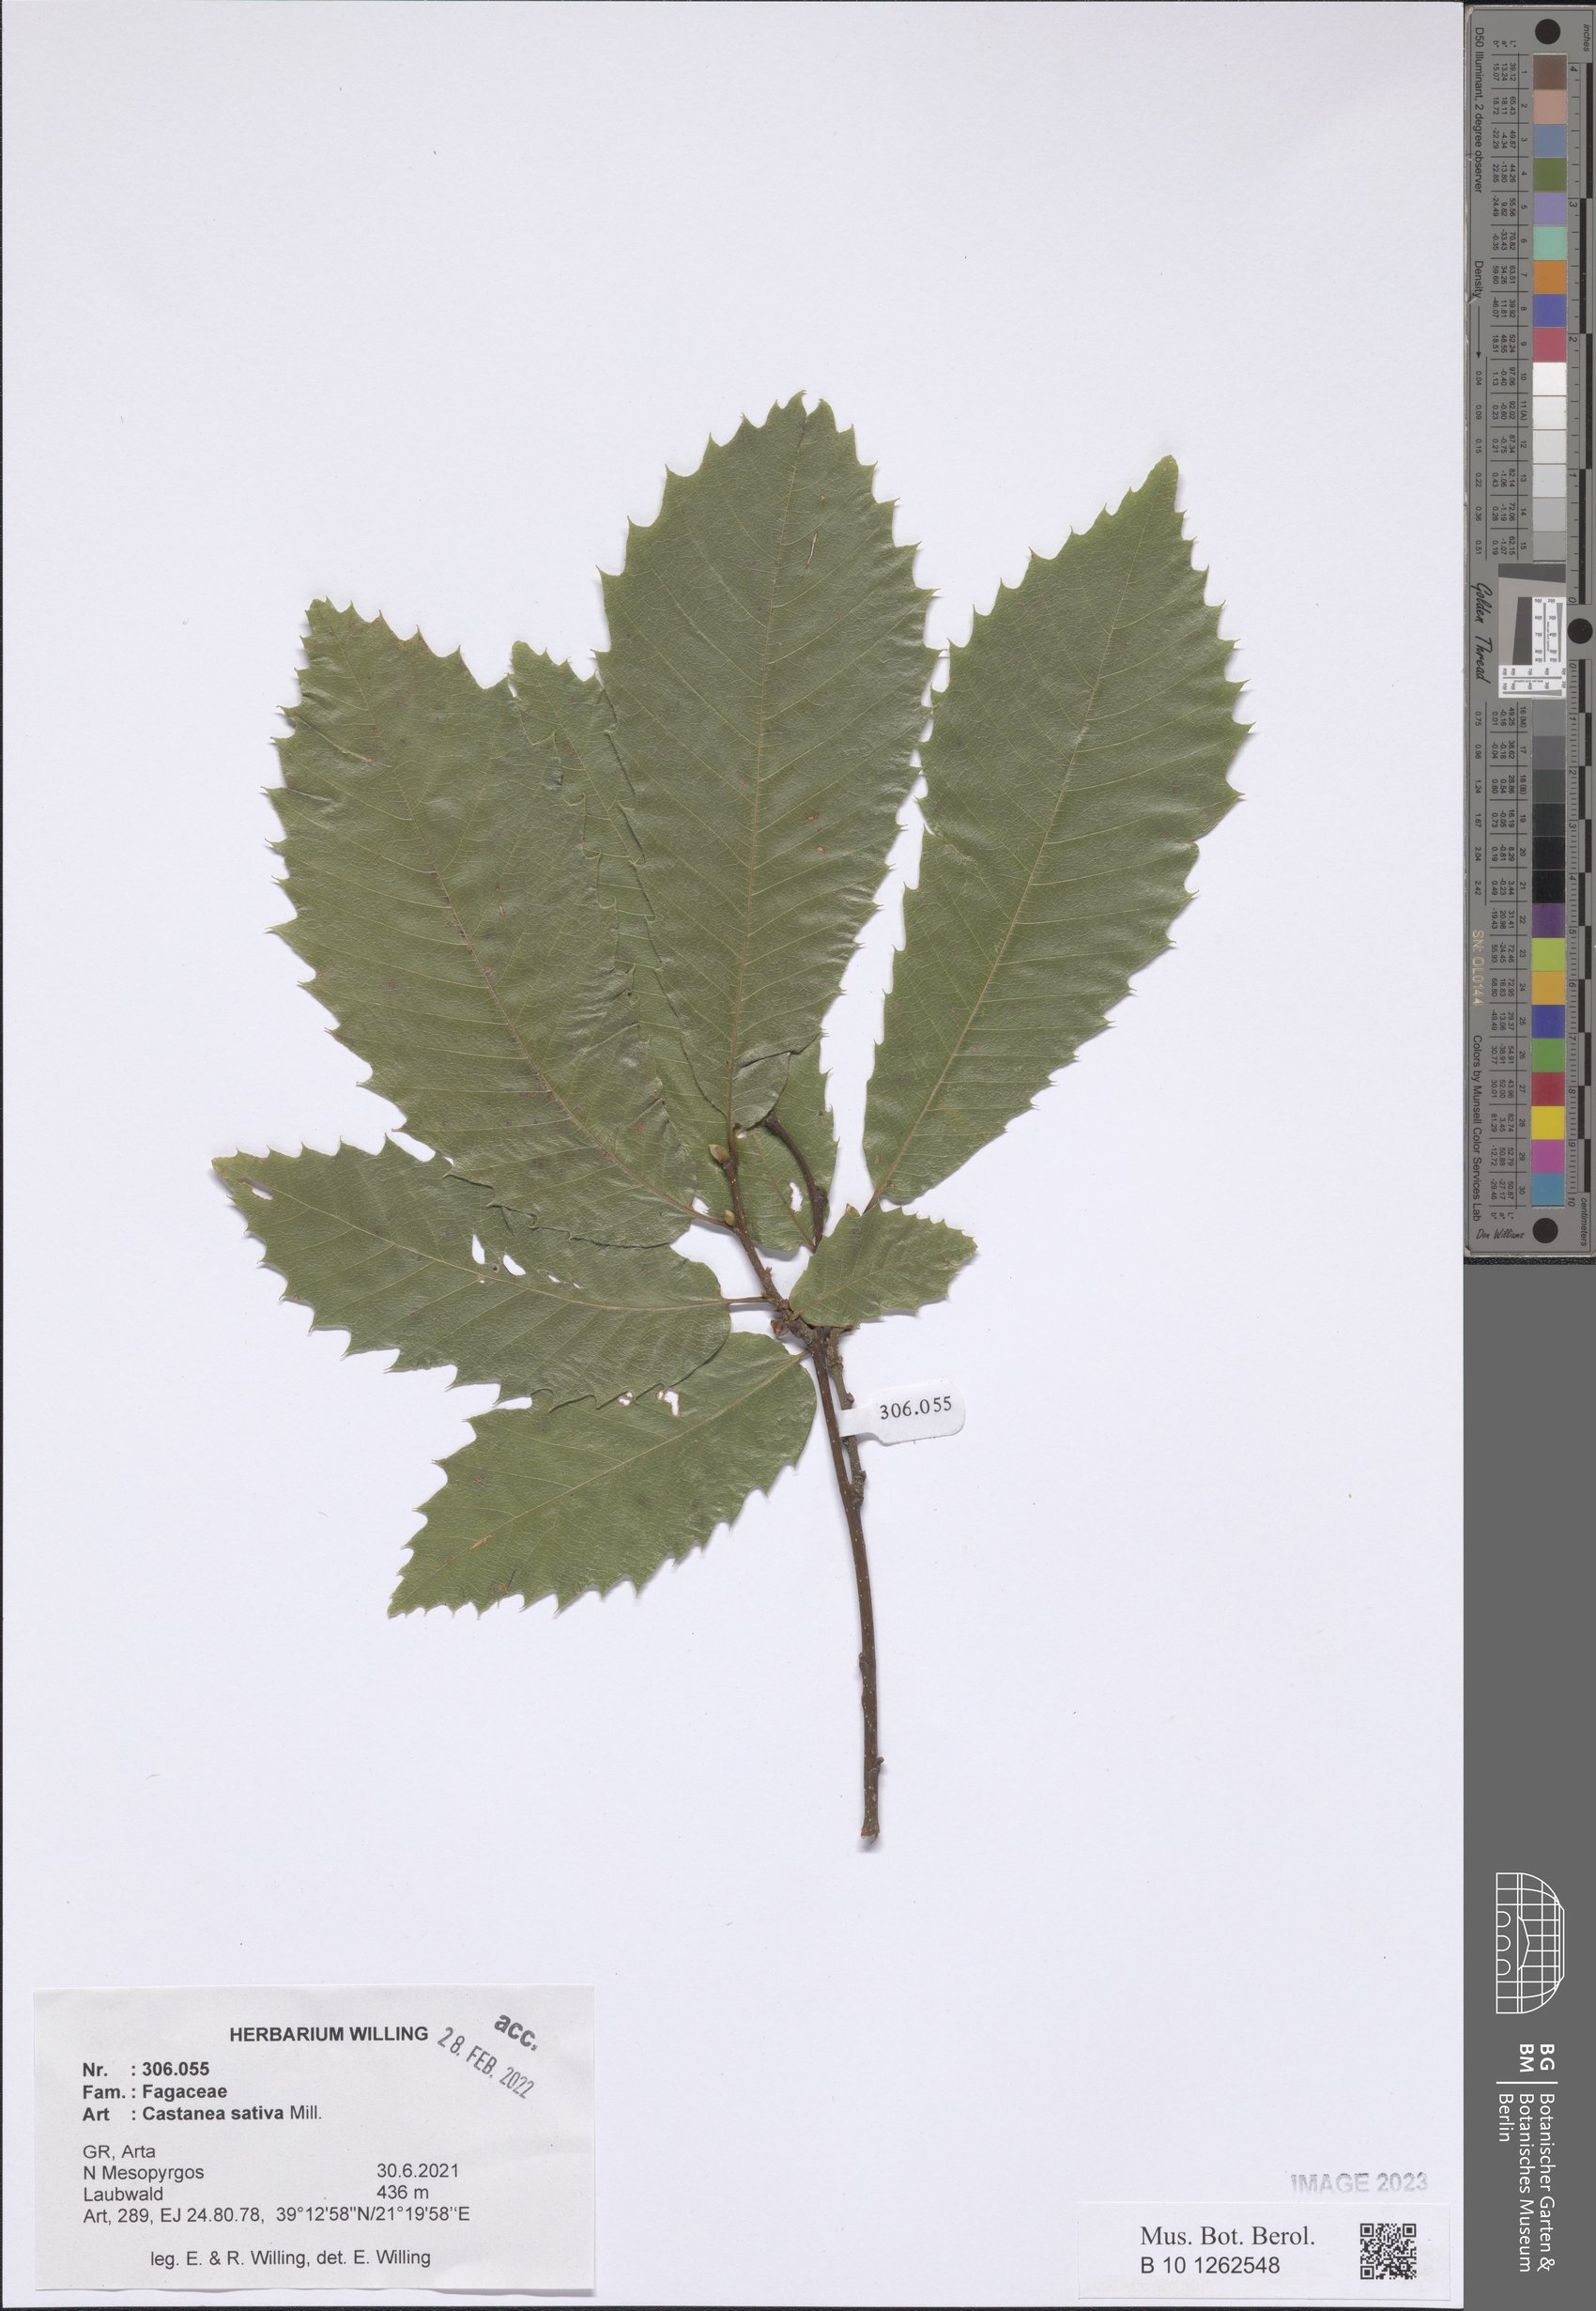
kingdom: Plantae
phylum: Tracheophyta
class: Magnoliopsida
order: Fagales
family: Fagaceae
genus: Castanea
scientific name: Castanea sativa
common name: Sweet chestnut
